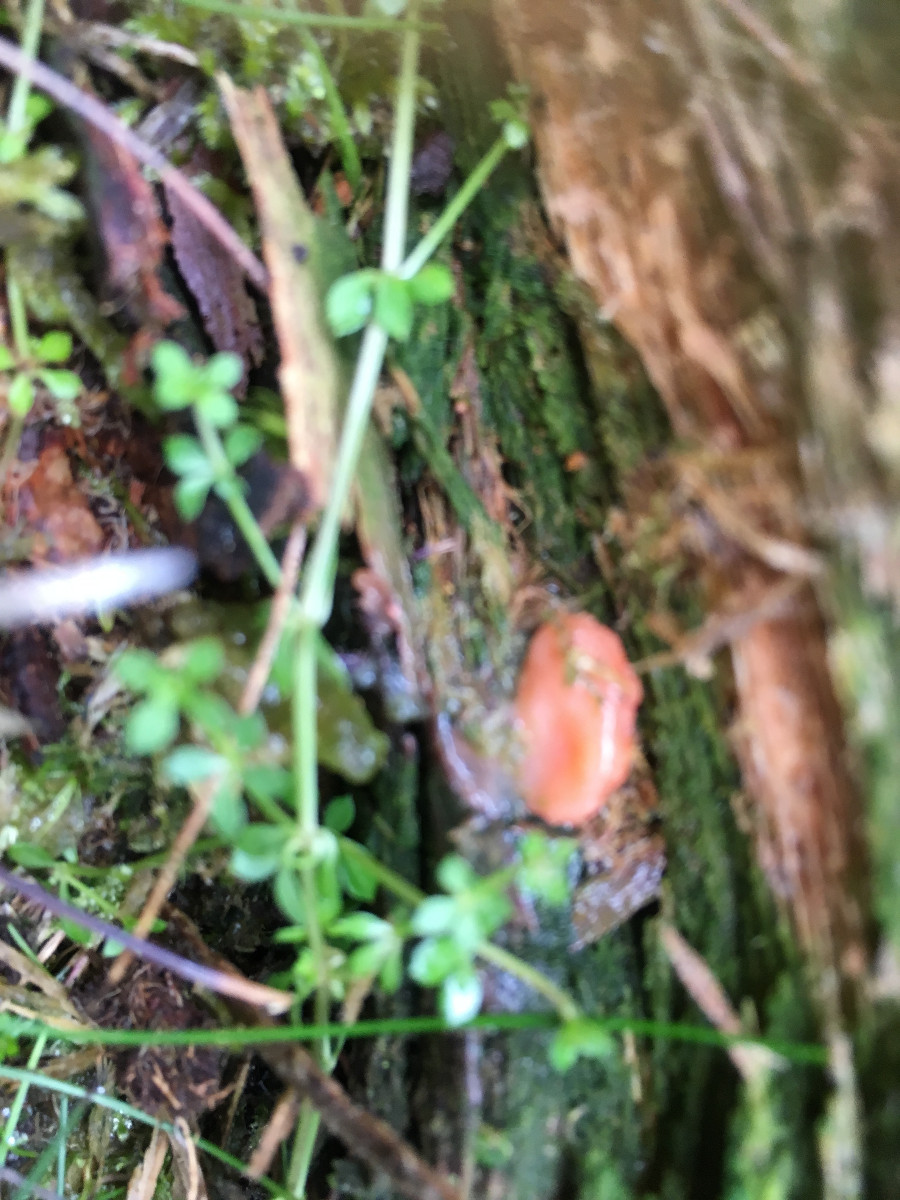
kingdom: Protozoa
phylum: Mycetozoa
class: Myxomycetes
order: Cribrariales
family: Tubiferaceae
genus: Tubifera
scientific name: Tubifera ferruginosa
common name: kanel-støvrør
